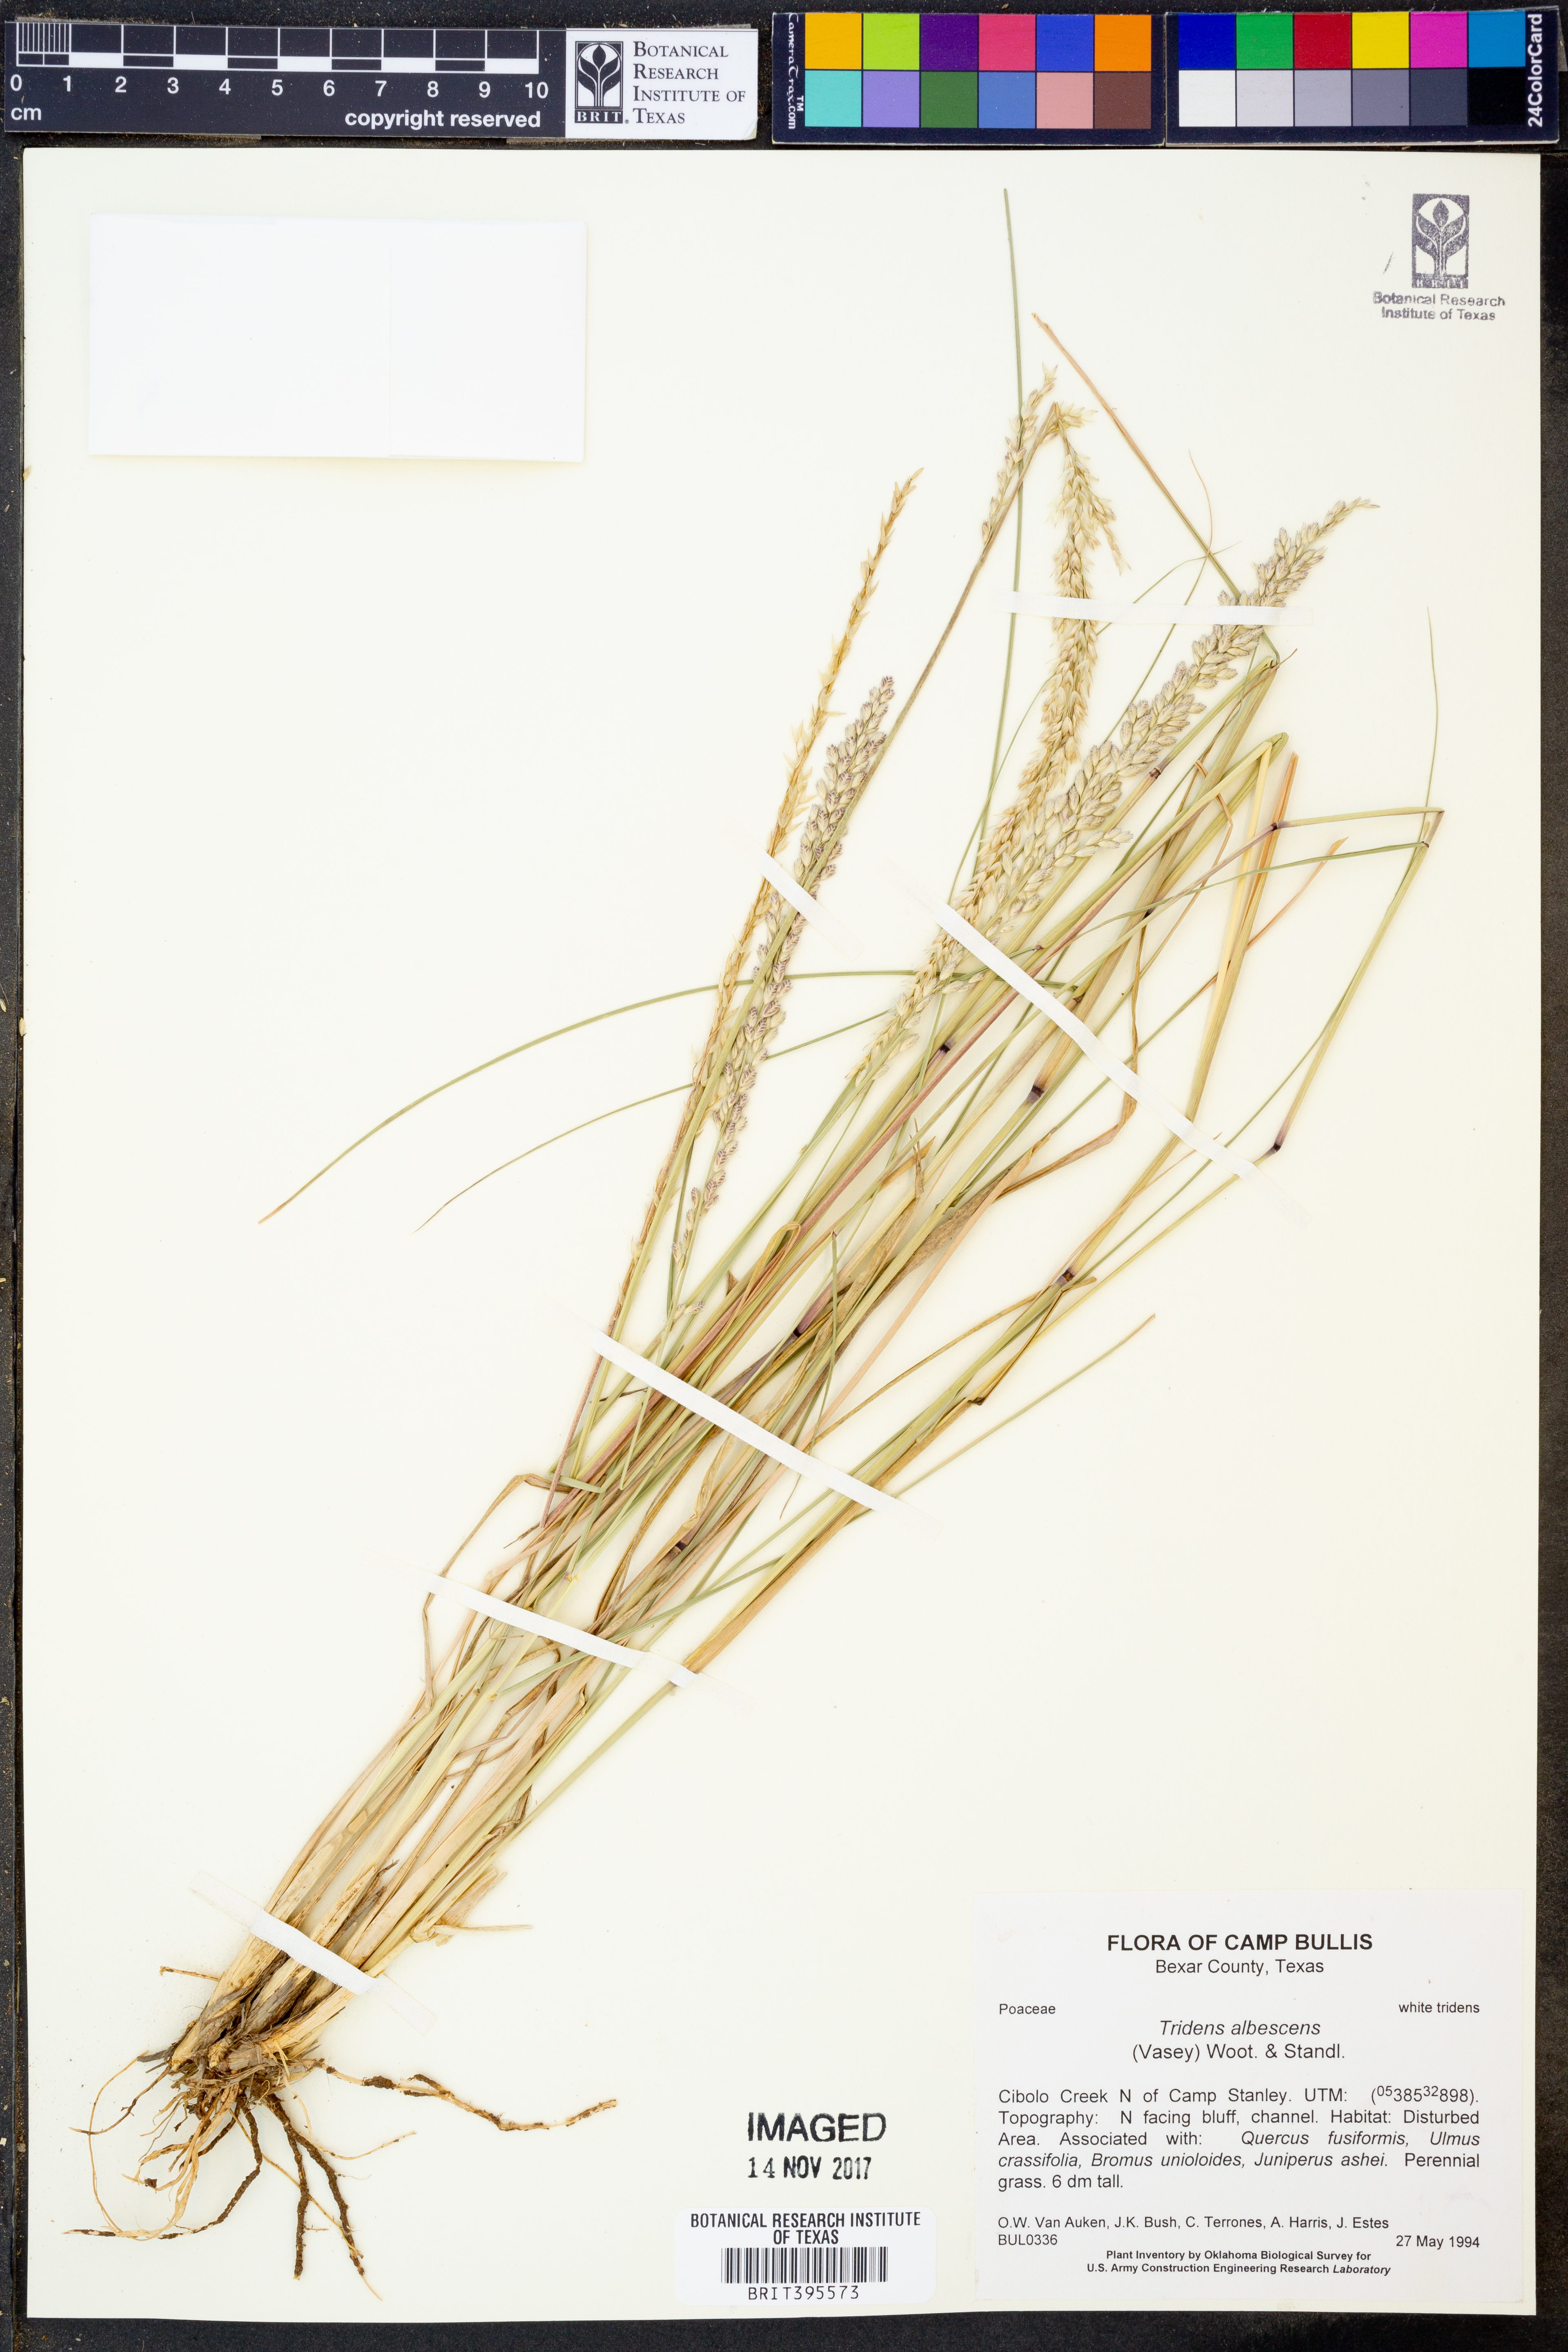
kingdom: Plantae
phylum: Tracheophyta
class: Liliopsida
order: Poales
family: Poaceae
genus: Tridens
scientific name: Tridens albescens
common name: White tridens
